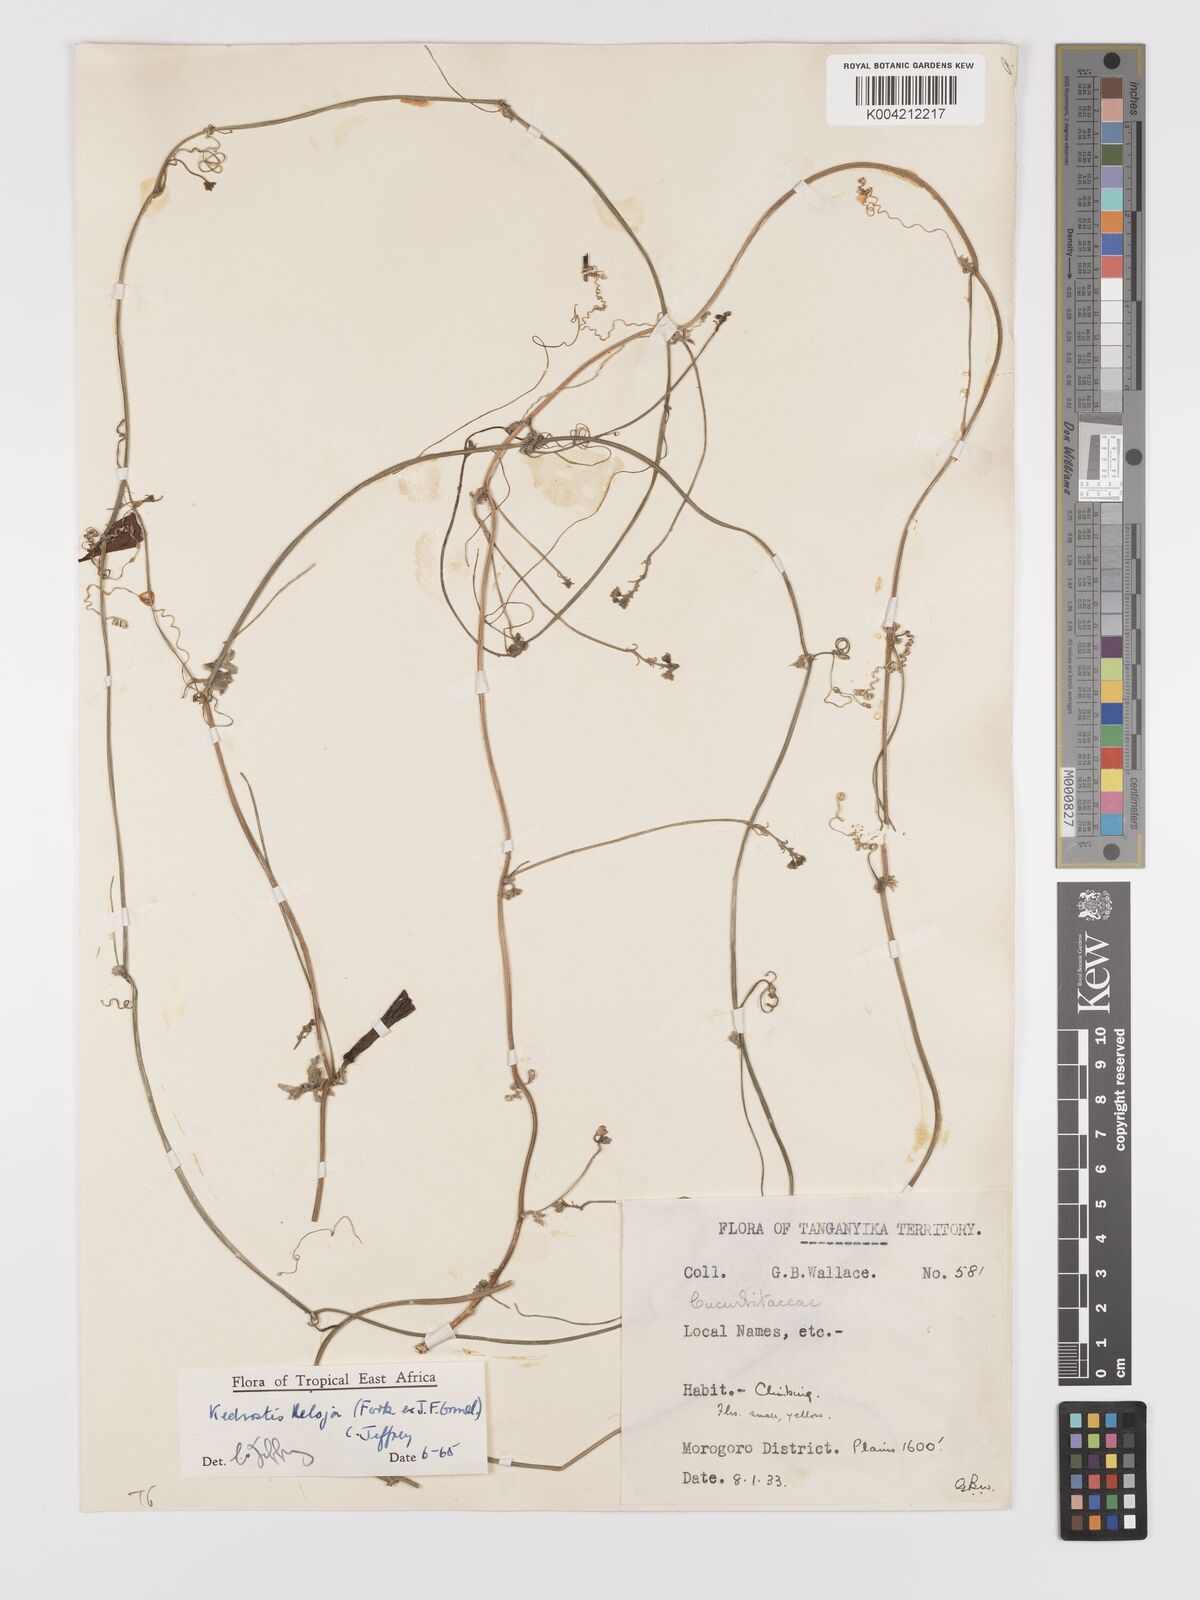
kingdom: Plantae
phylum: Tracheophyta
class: Magnoliopsida
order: Cucurbitales
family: Cucurbitaceae
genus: Kedrostis
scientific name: Kedrostis abdallae
